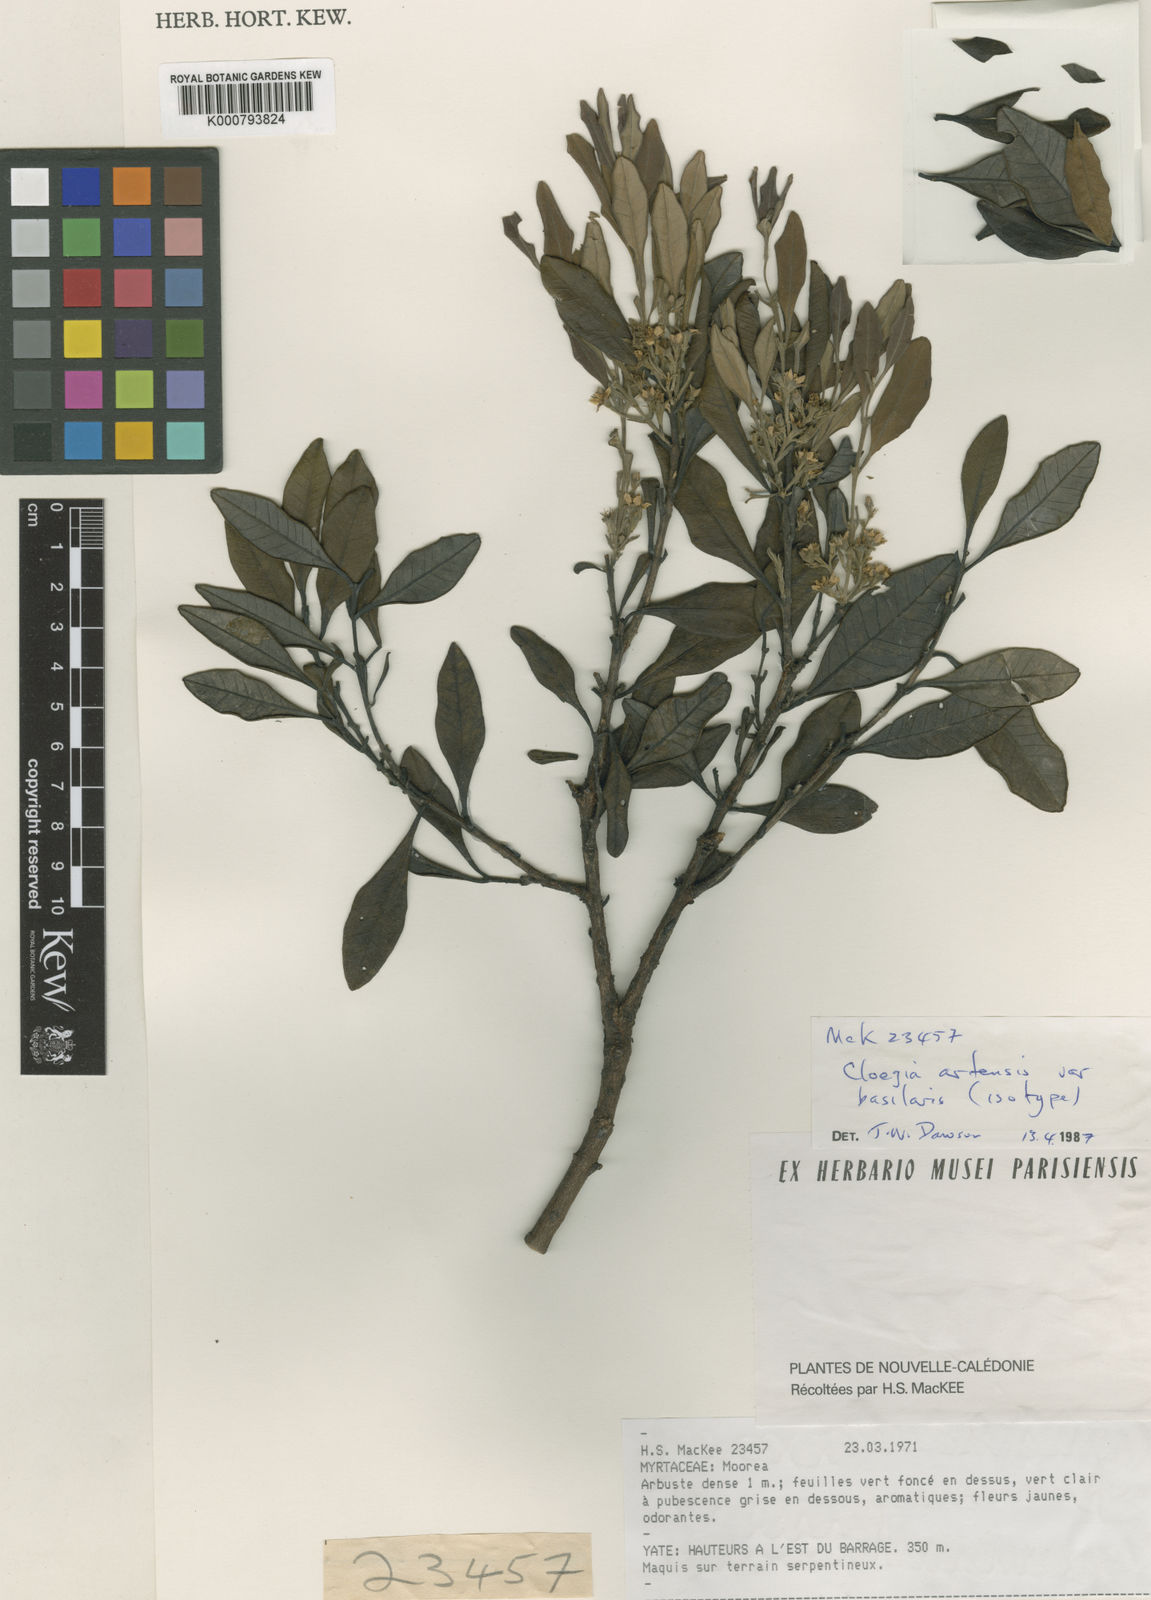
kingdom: Plantae
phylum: Tracheophyta
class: Magnoliopsida
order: Myrtales
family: Myrtaceae
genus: Cloezia
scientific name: Cloezia artensis
